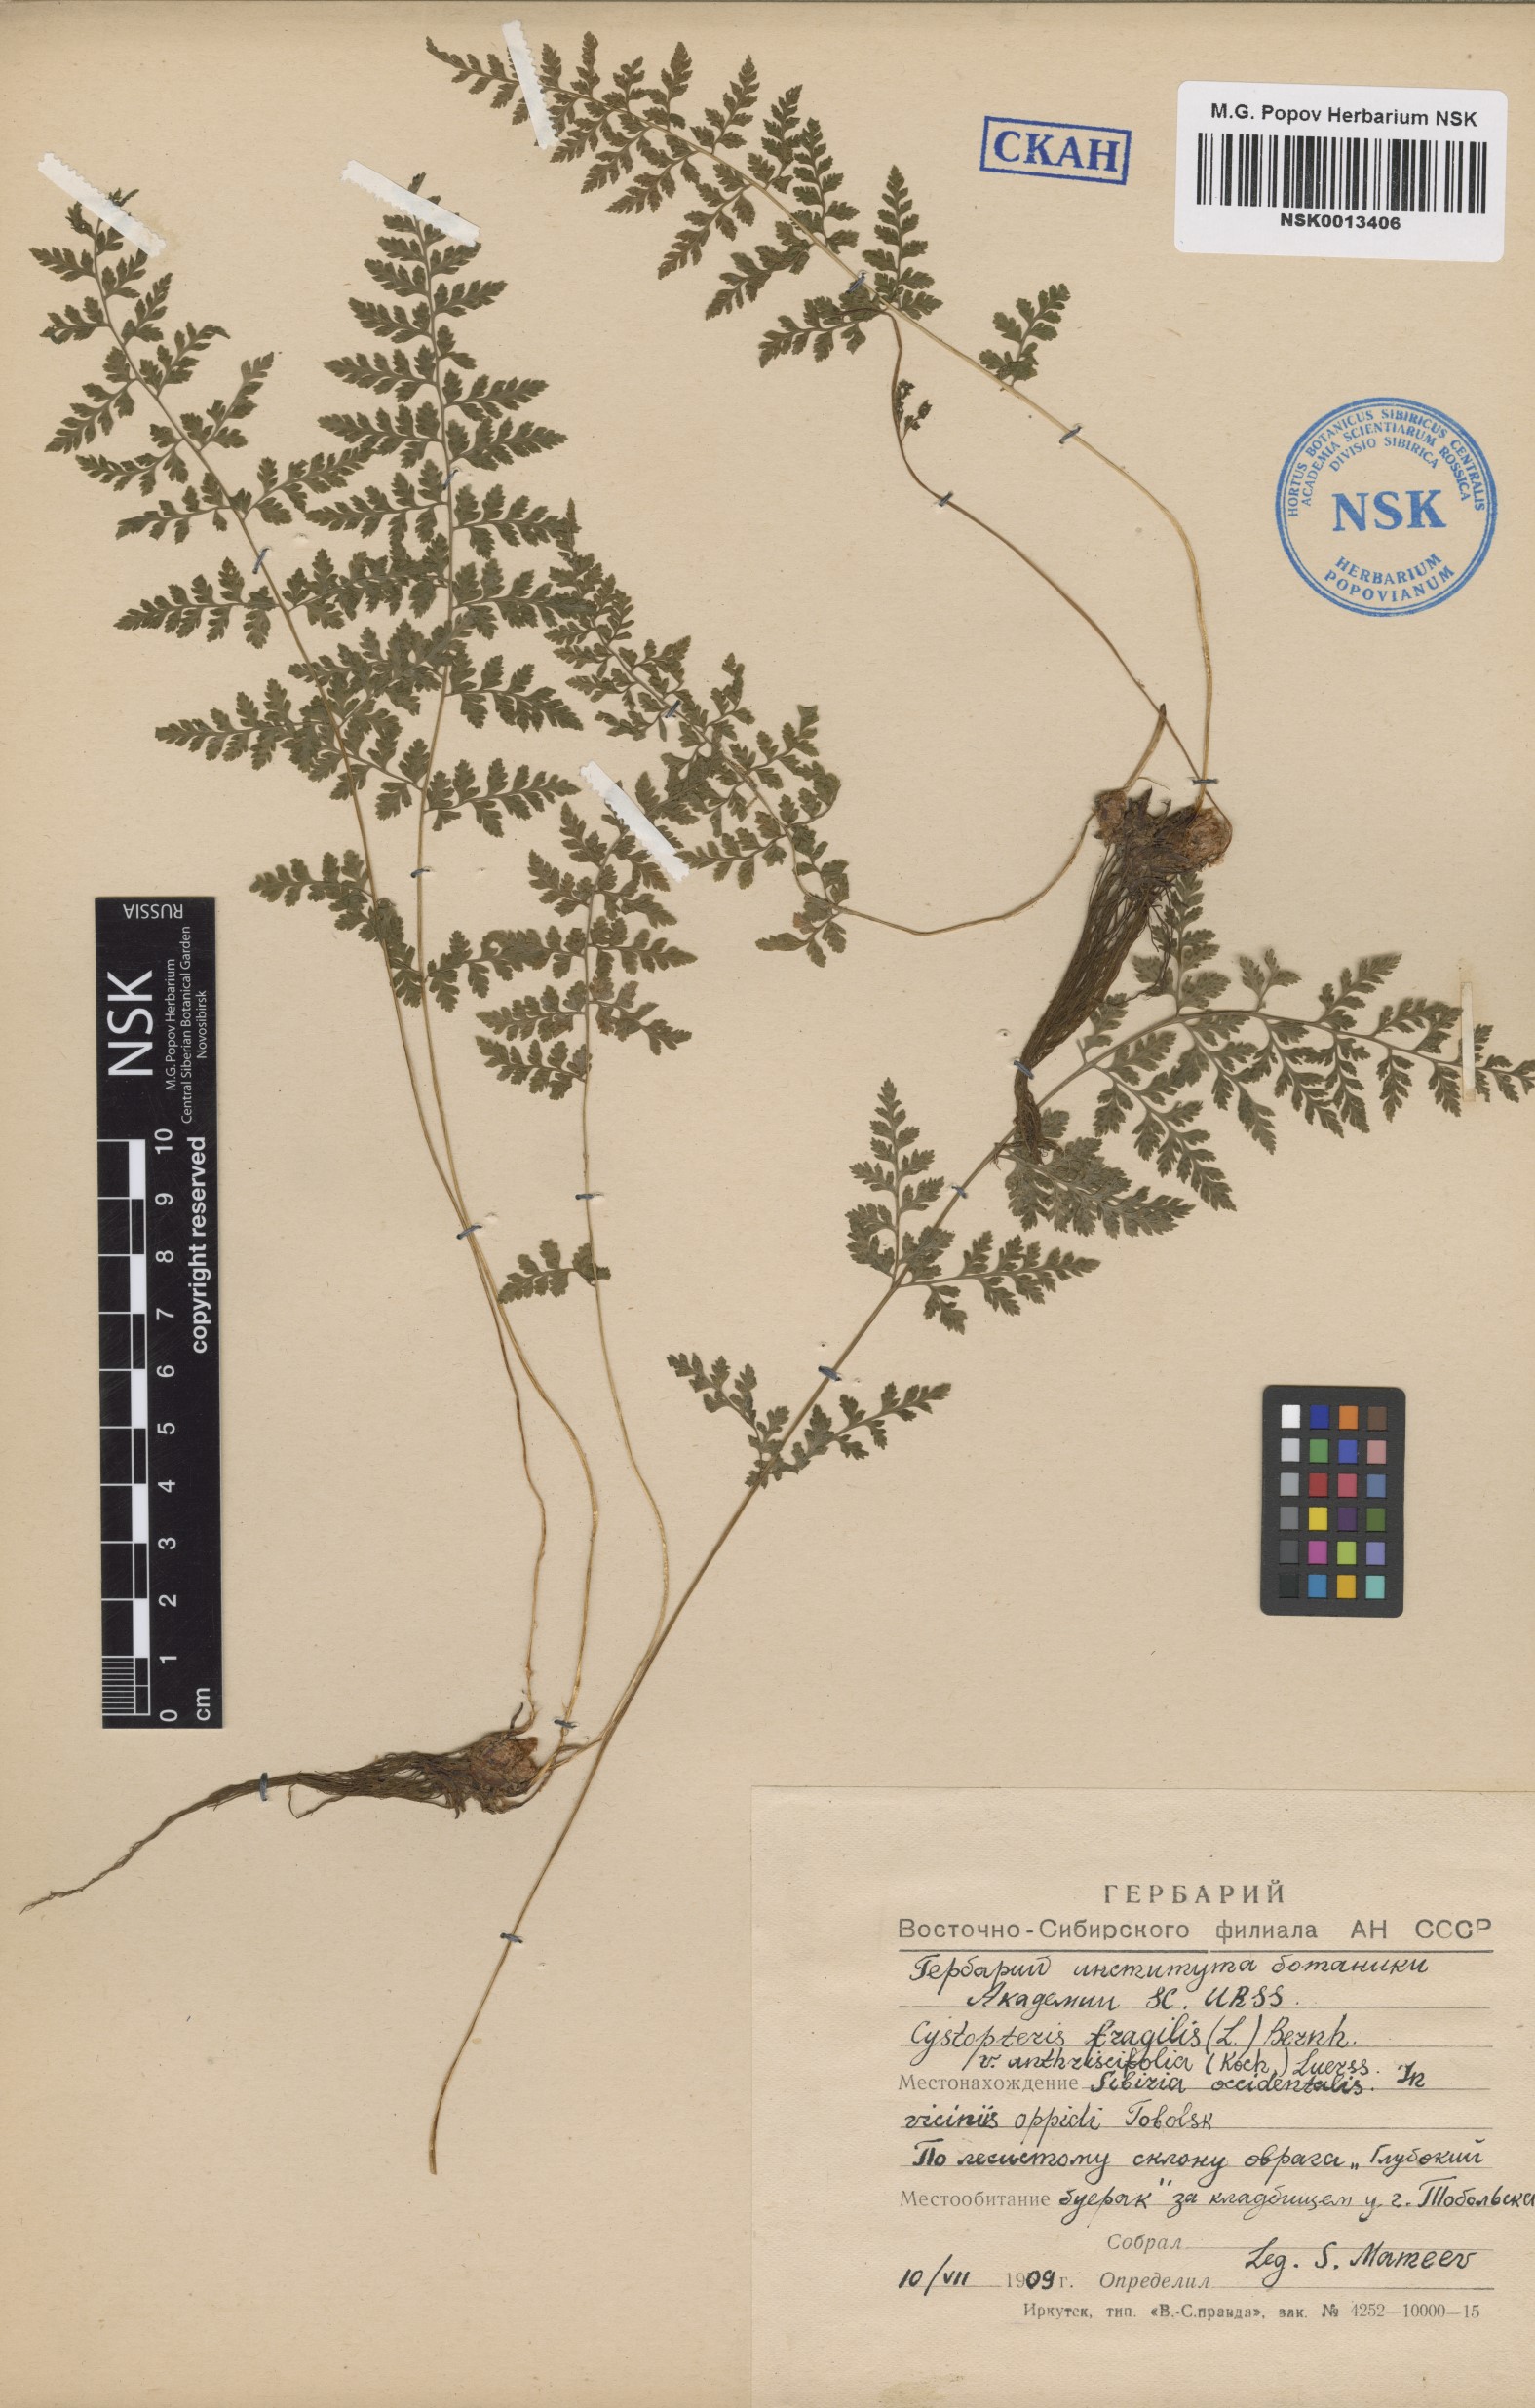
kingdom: Plantae
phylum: Tracheophyta
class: Polypodiopsida
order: Polypodiales
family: Cystopteridaceae
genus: Cystopteris
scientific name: Cystopteris fragilis
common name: Brittle bladder fern
